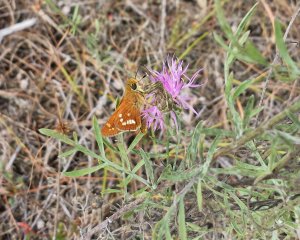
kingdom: Animalia
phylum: Arthropoda
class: Insecta
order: Lepidoptera
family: Hesperiidae
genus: Hesperia
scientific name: Hesperia leonardus
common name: Leonard's Skipper
